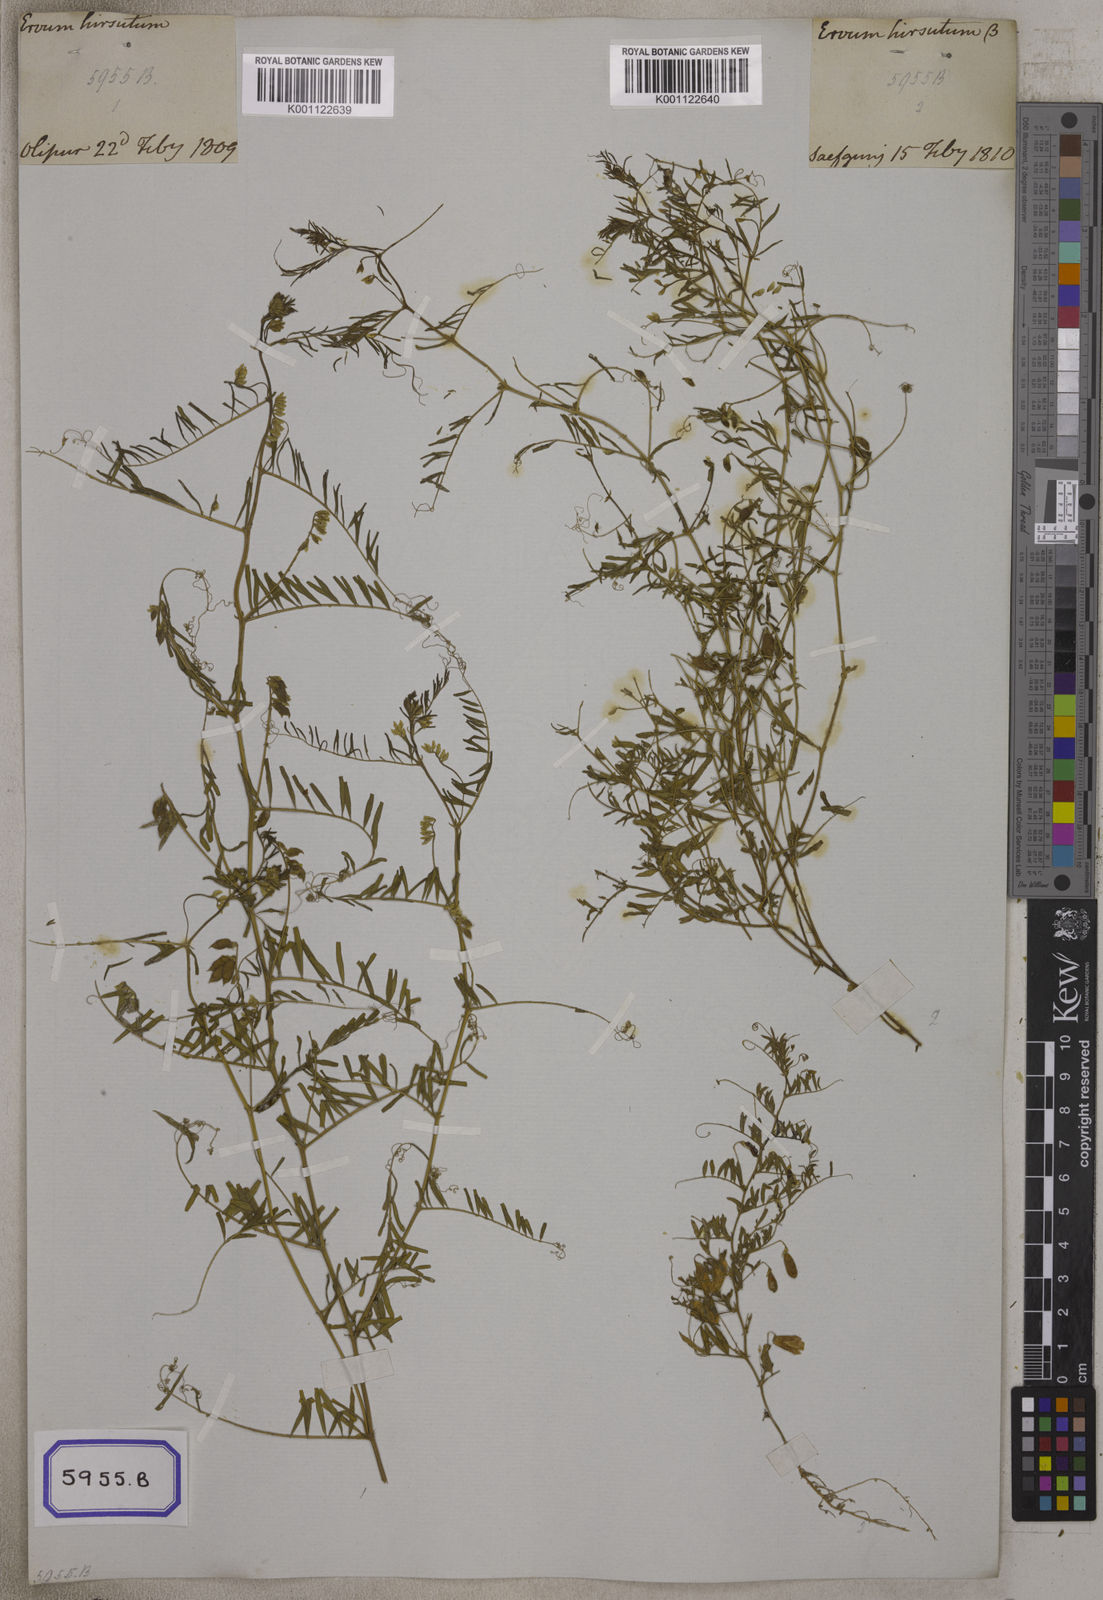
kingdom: Plantae
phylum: Tracheophyta
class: Magnoliopsida
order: Fabales
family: Fabaceae
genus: Vicia
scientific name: Vicia hirsuta
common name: Tiny vetch
